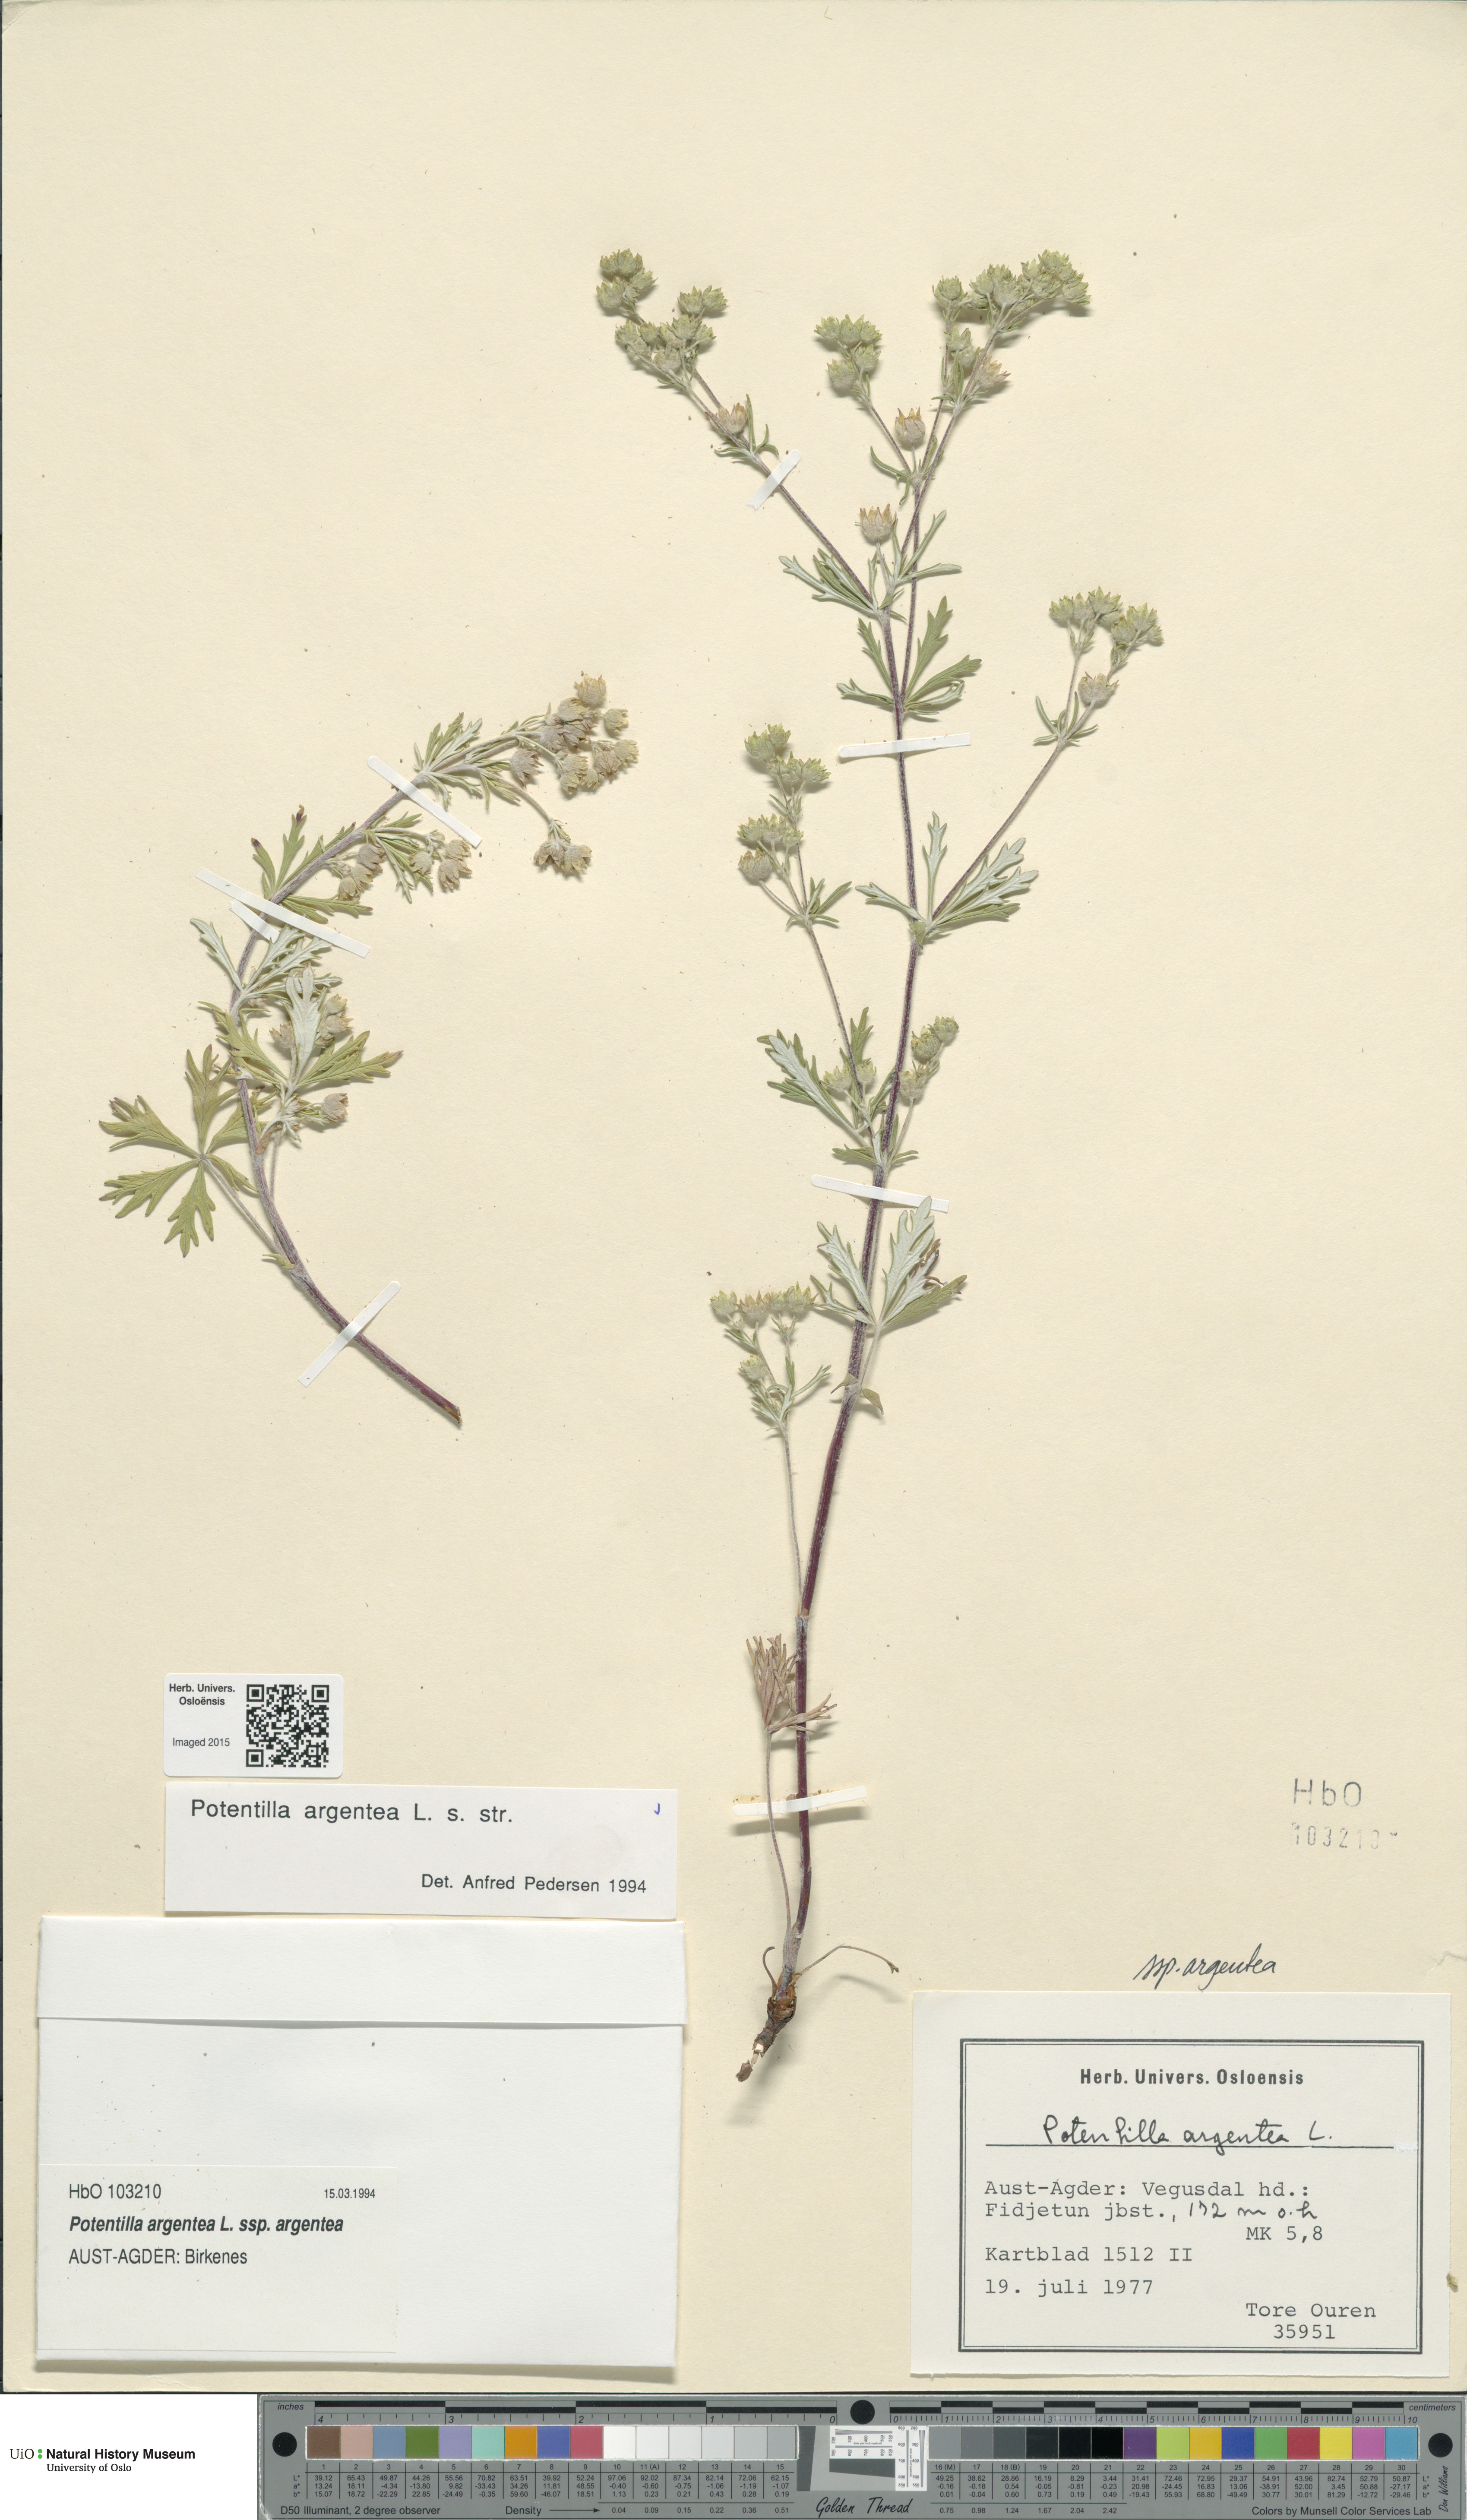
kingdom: Plantae
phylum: Tracheophyta
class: Magnoliopsida
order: Rosales
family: Rosaceae
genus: Potentilla
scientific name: Potentilla argentea
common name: Hoary cinquefoil
